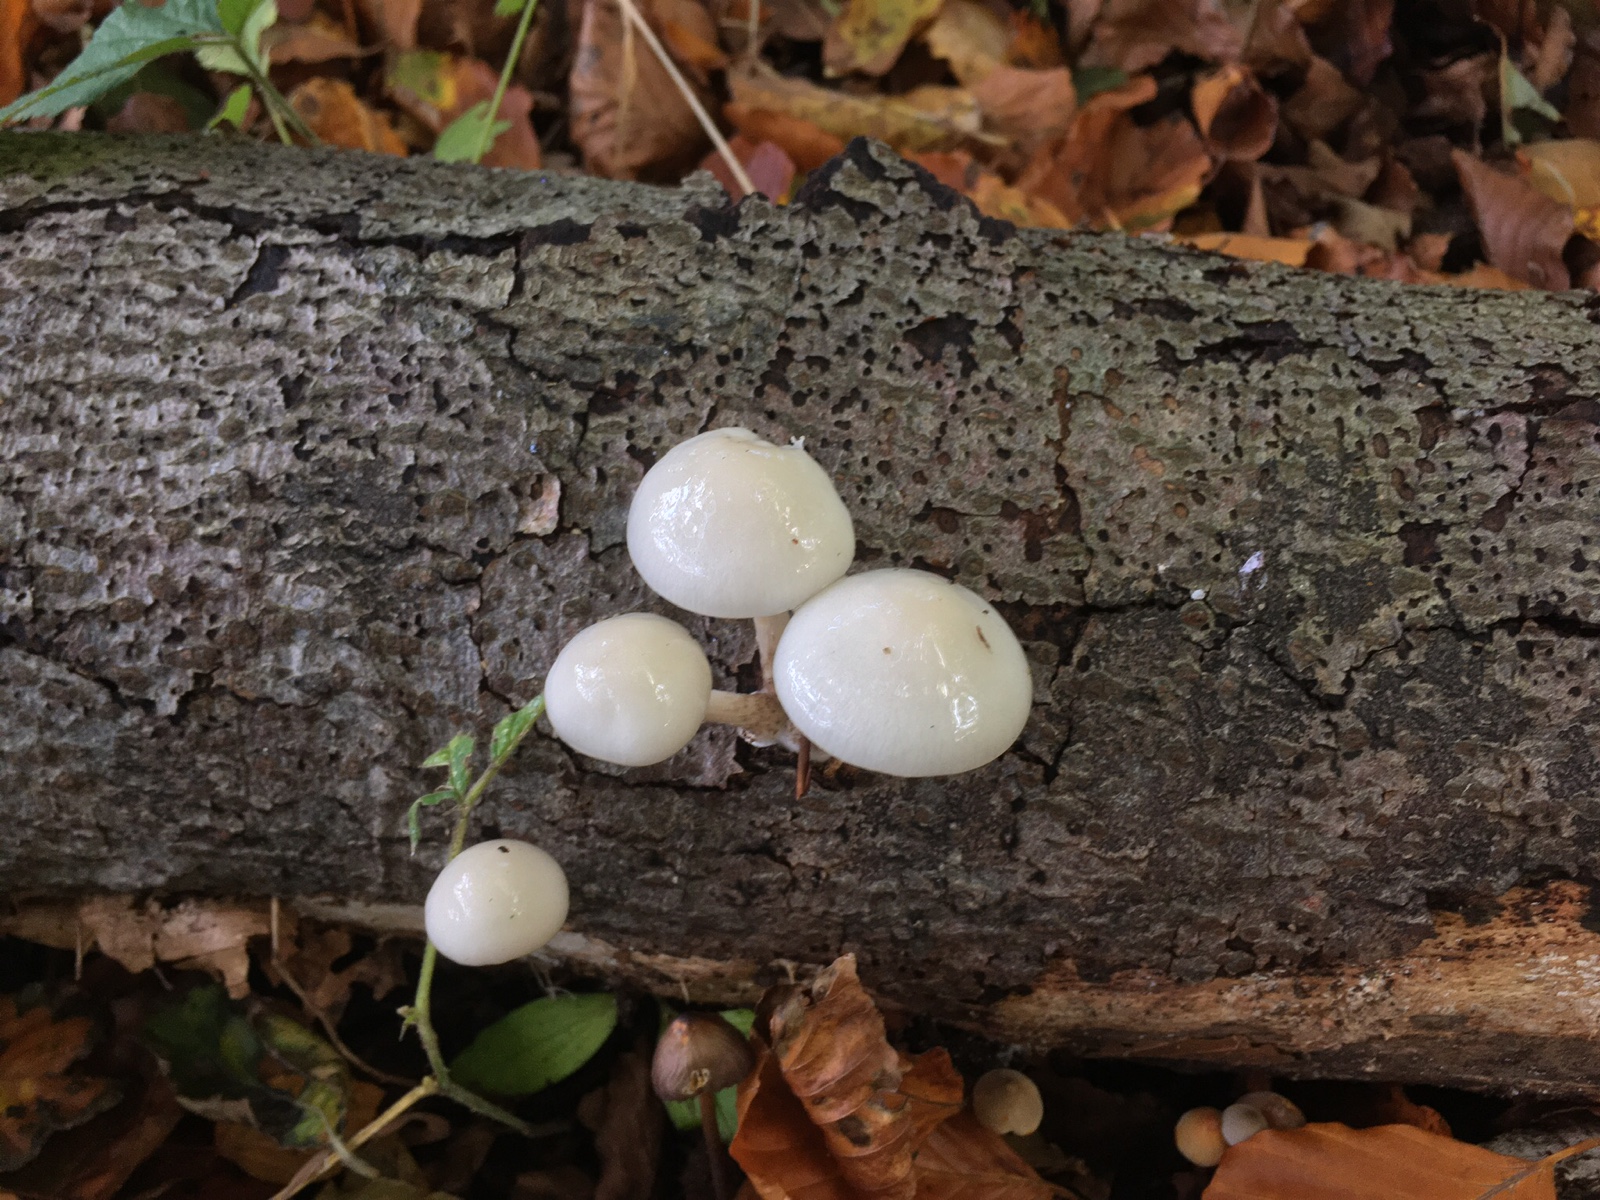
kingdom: Fungi
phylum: Basidiomycota
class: Agaricomycetes
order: Agaricales
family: Physalacriaceae
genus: Mucidula
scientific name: Mucidula mucida
